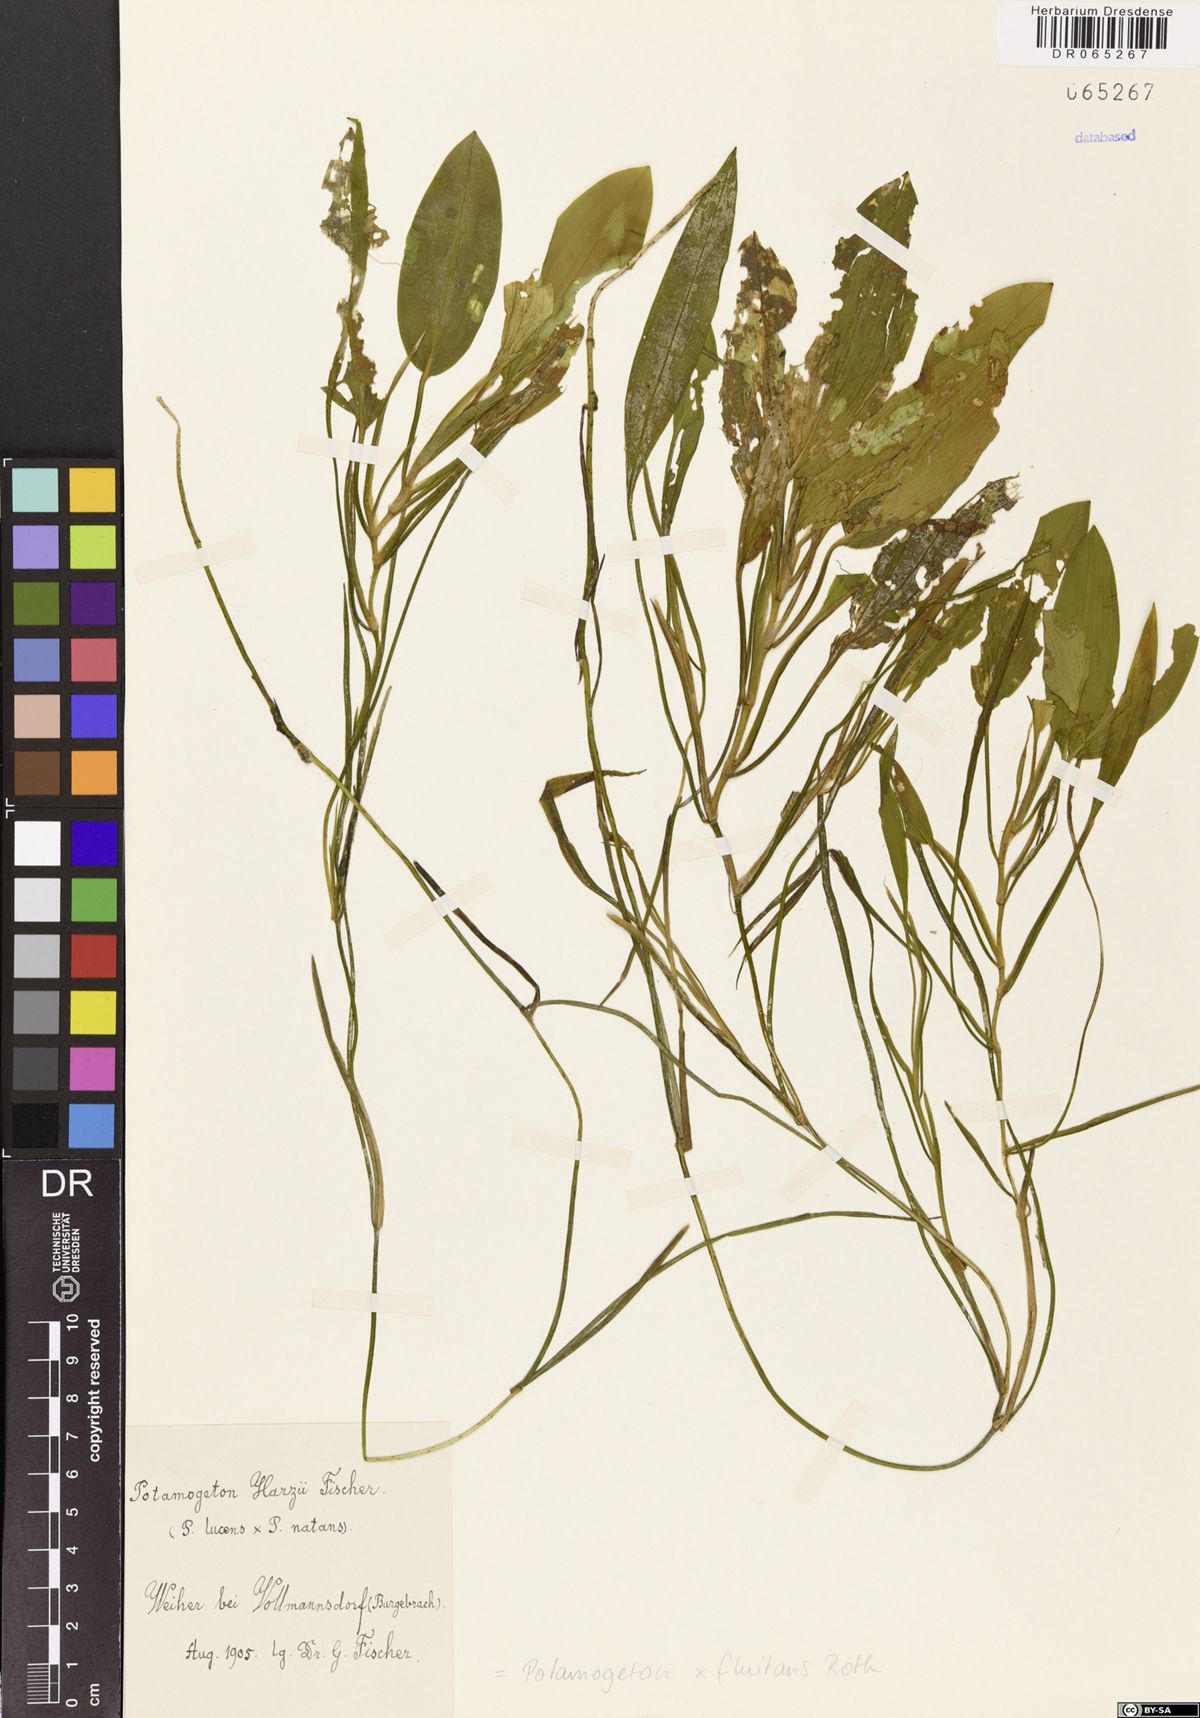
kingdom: Plantae
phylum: Tracheophyta
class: Liliopsida
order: Alismatales
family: Potamogetonaceae
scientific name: Potamogetonaceae
